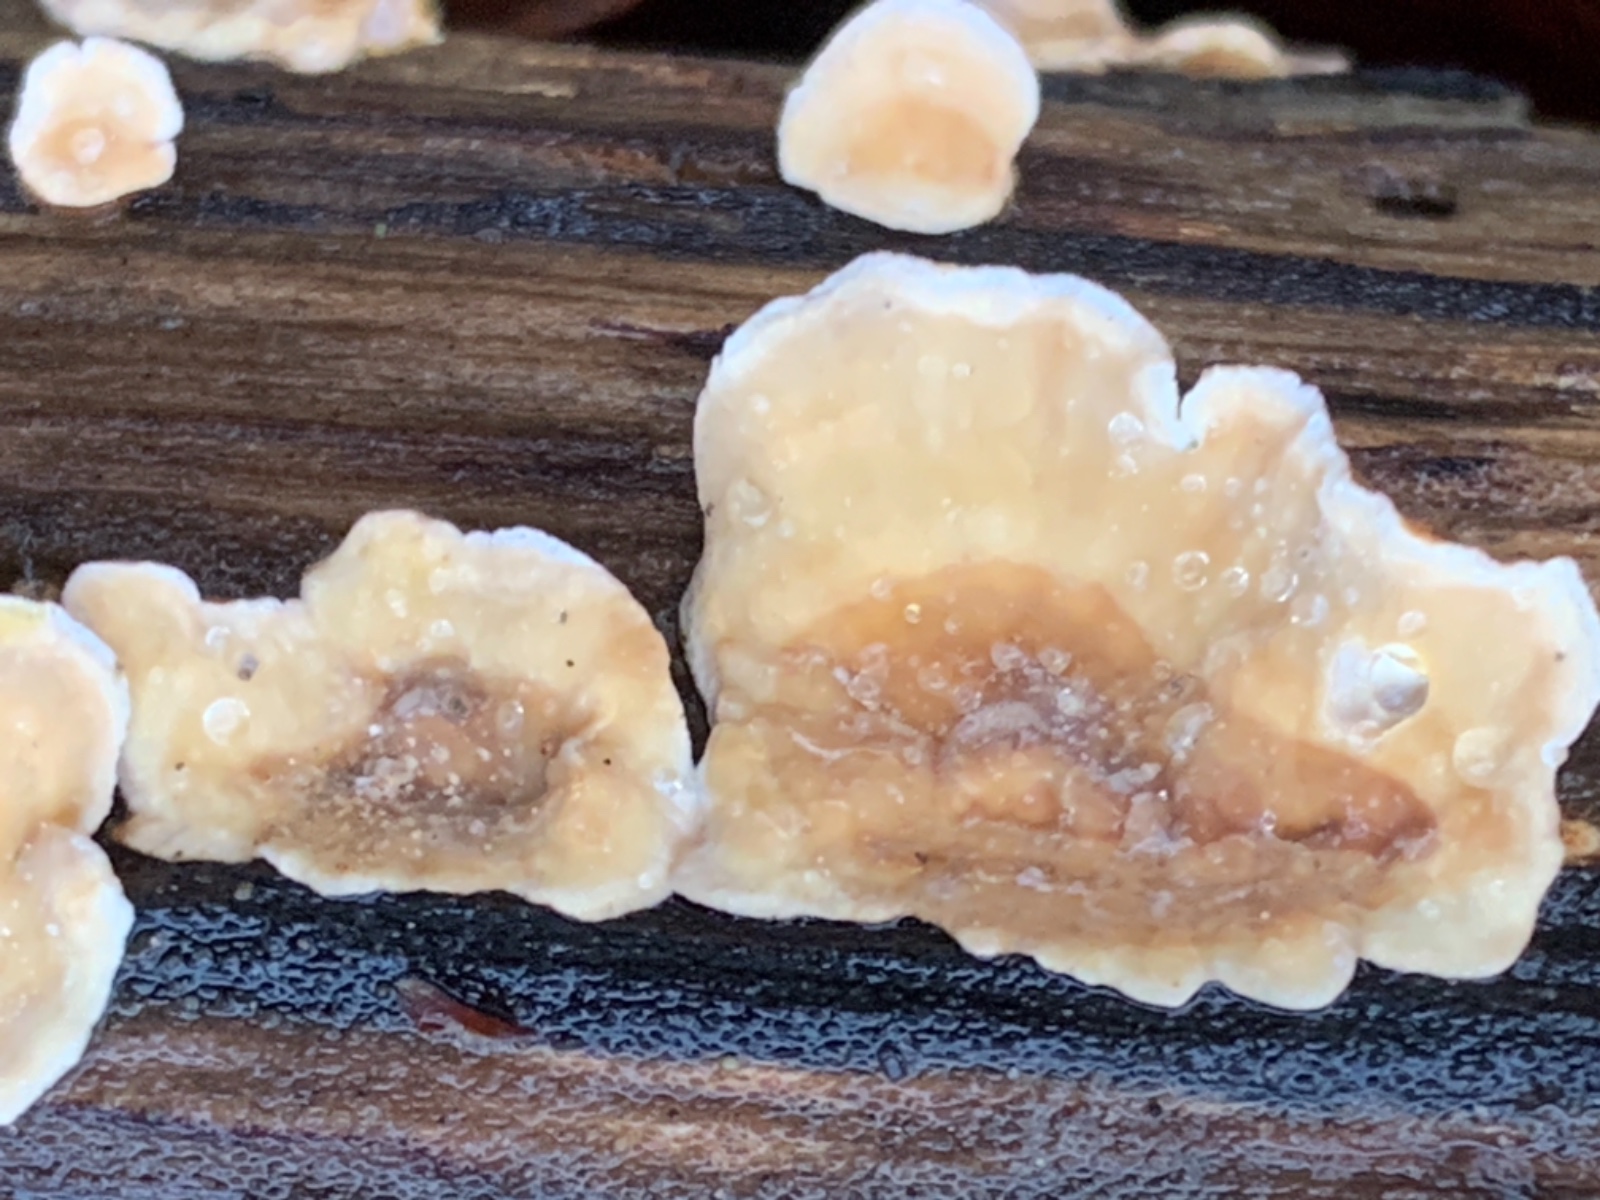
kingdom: Fungi
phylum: Basidiomycota
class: Agaricomycetes
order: Russulales
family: Stereaceae
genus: Stereum
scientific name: Stereum hirsutum
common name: håret lædersvamp
